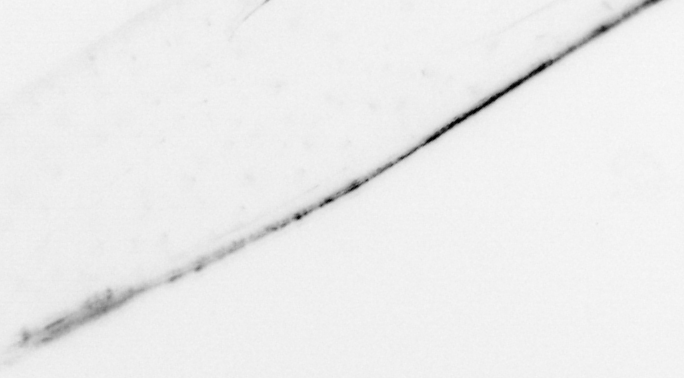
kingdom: Animalia
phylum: Chaetognatha
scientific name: Chaetognatha
